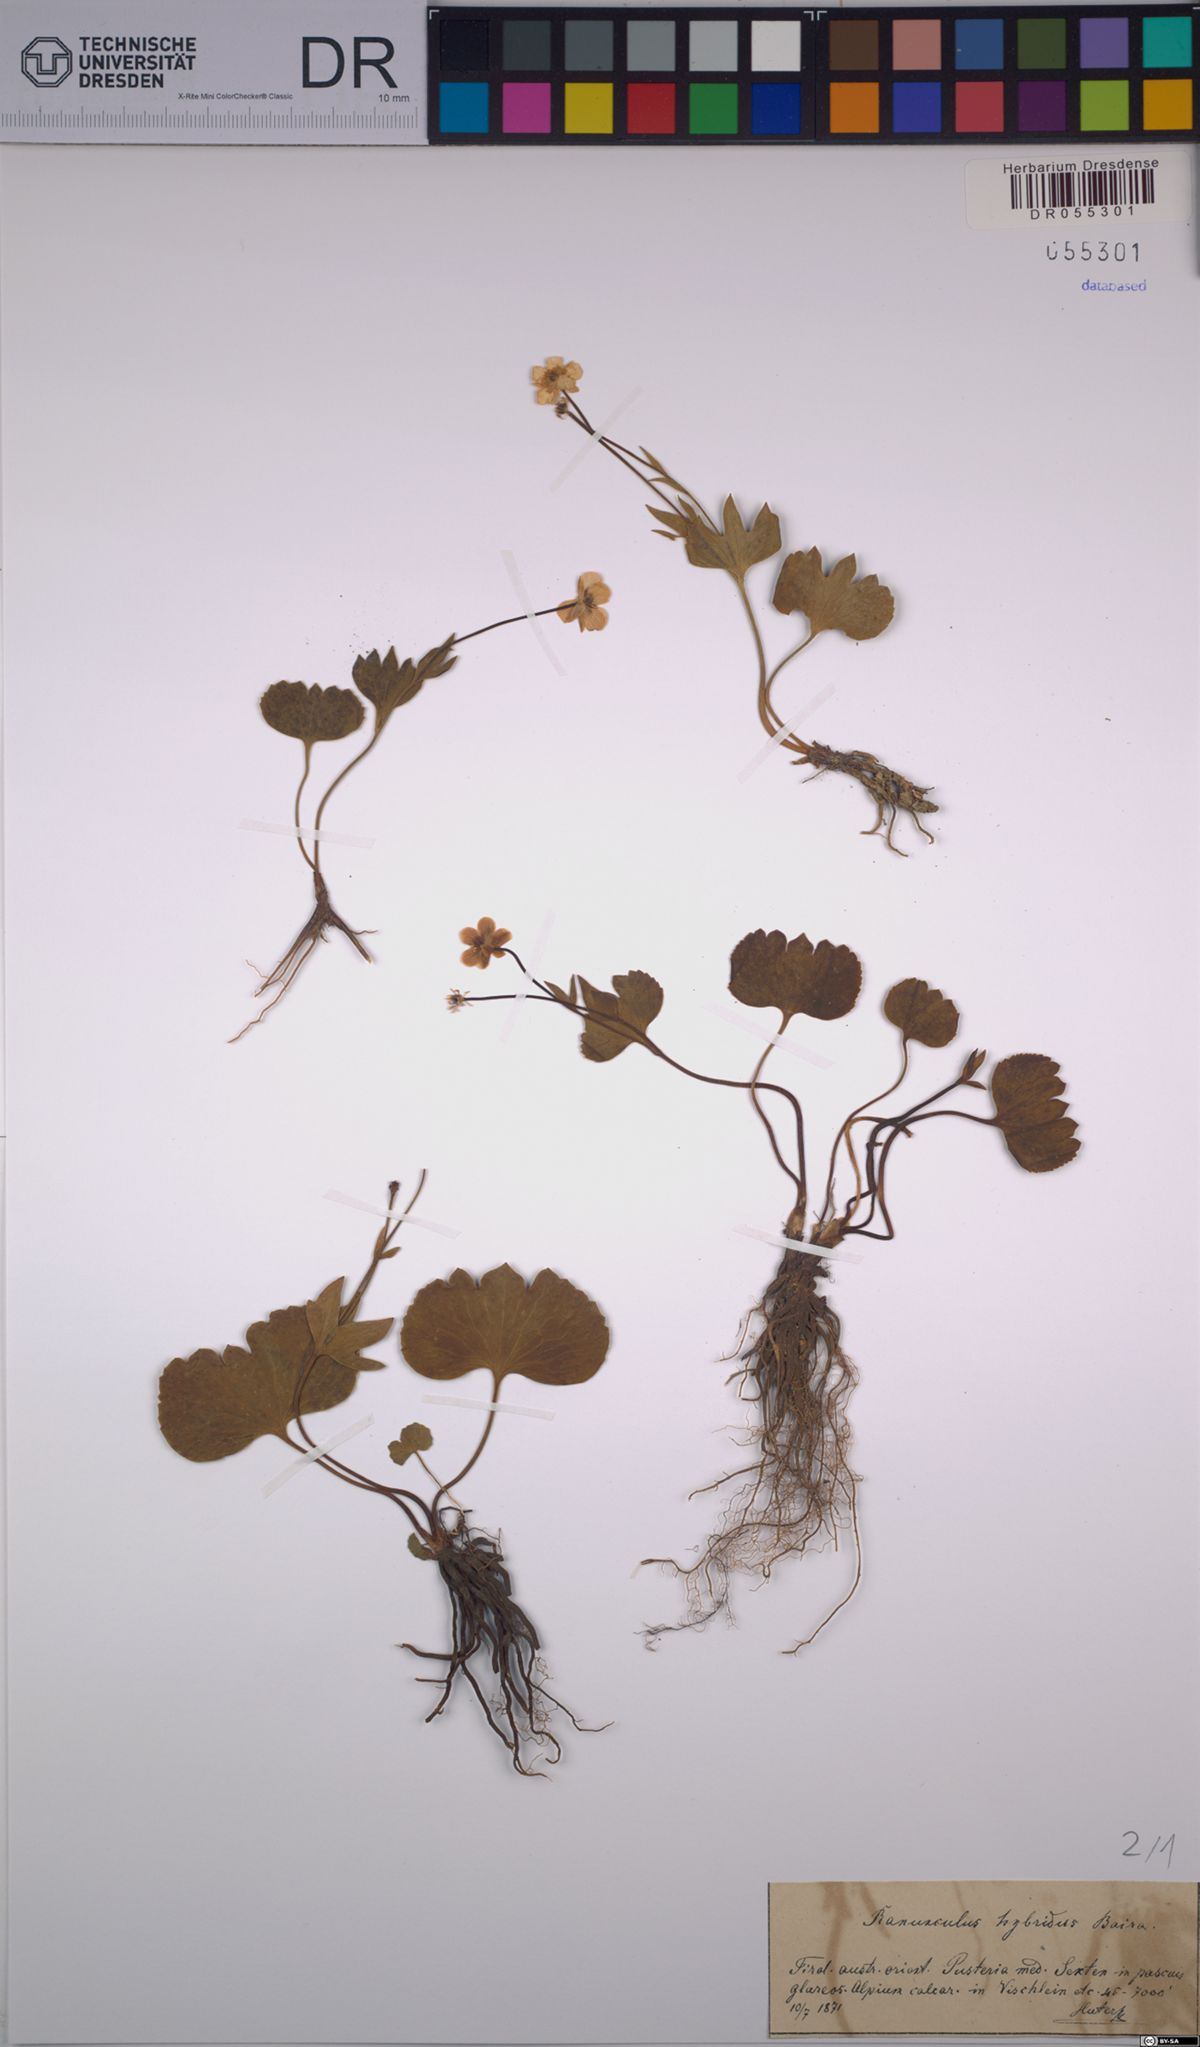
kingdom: Plantae
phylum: Tracheophyta
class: Magnoliopsida
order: Ranunculales
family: Ranunculaceae
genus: Ranunculus
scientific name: Ranunculus hybridus
